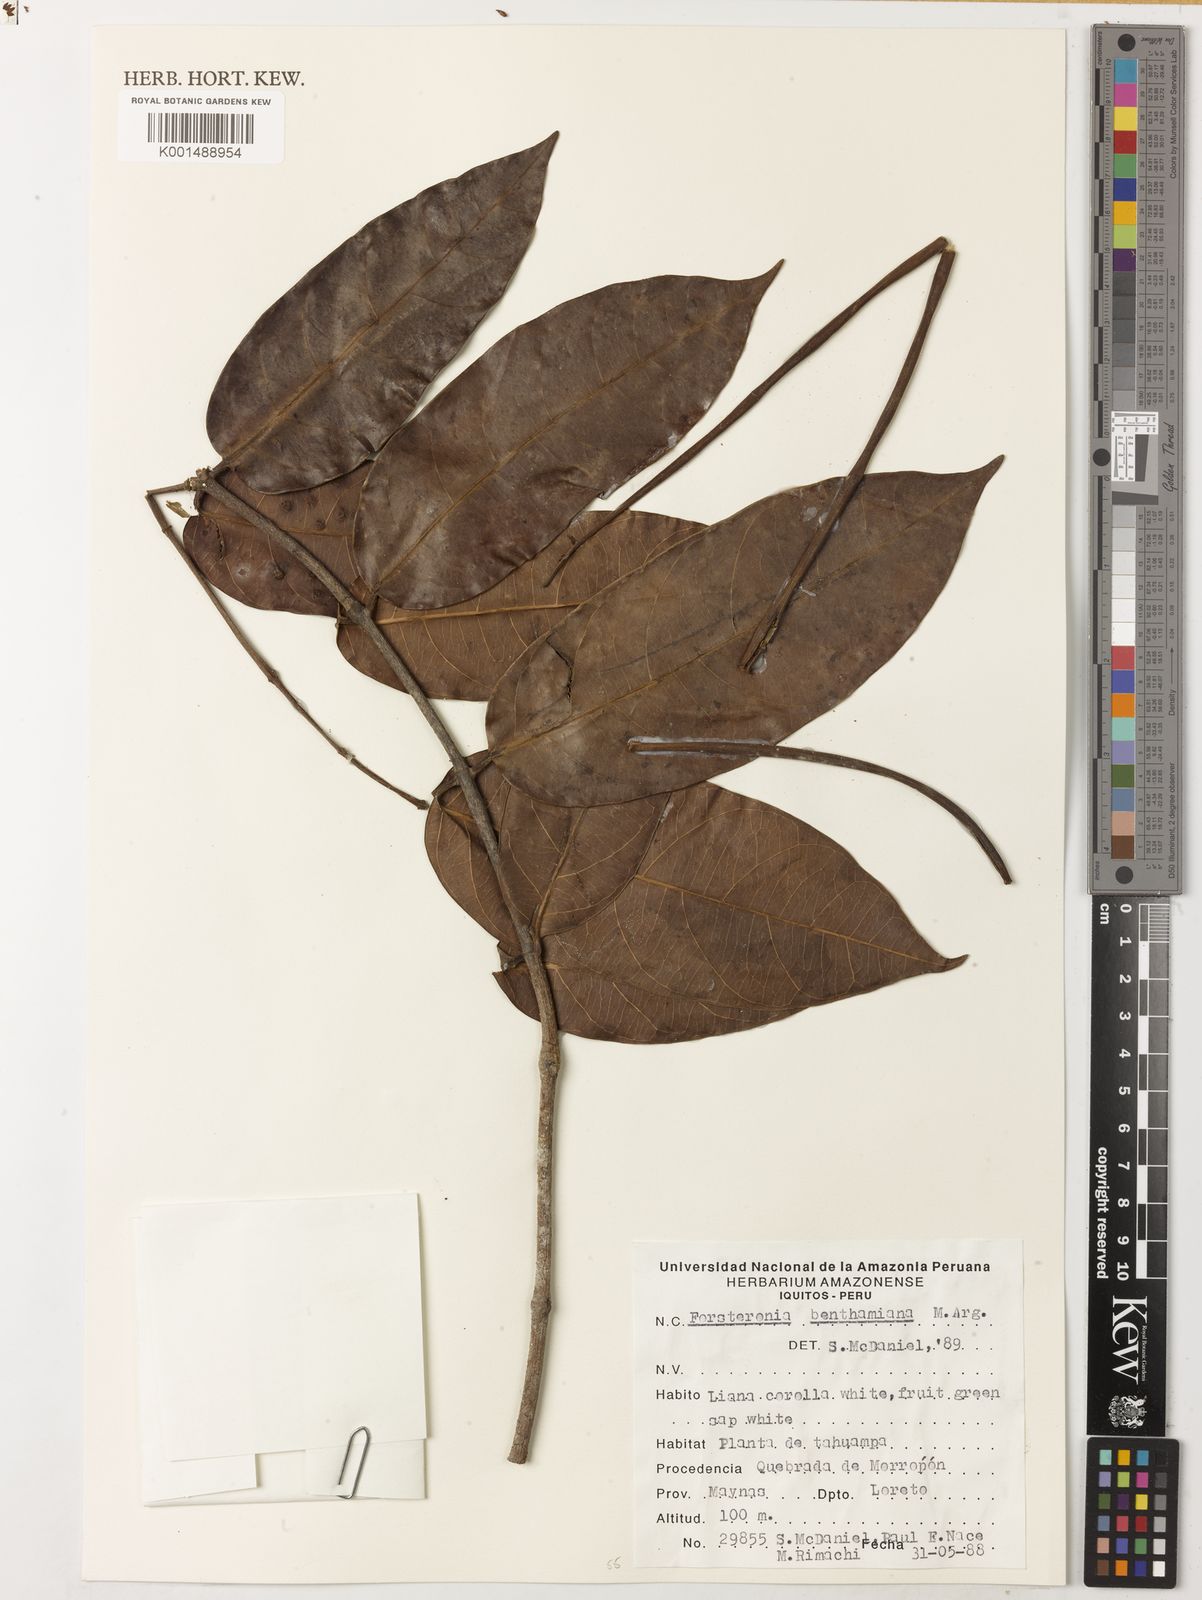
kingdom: Plantae
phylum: Tracheophyta
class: Magnoliopsida
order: Gentianales
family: Apocynaceae
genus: Forsteronia
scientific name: Forsteronia acouci
